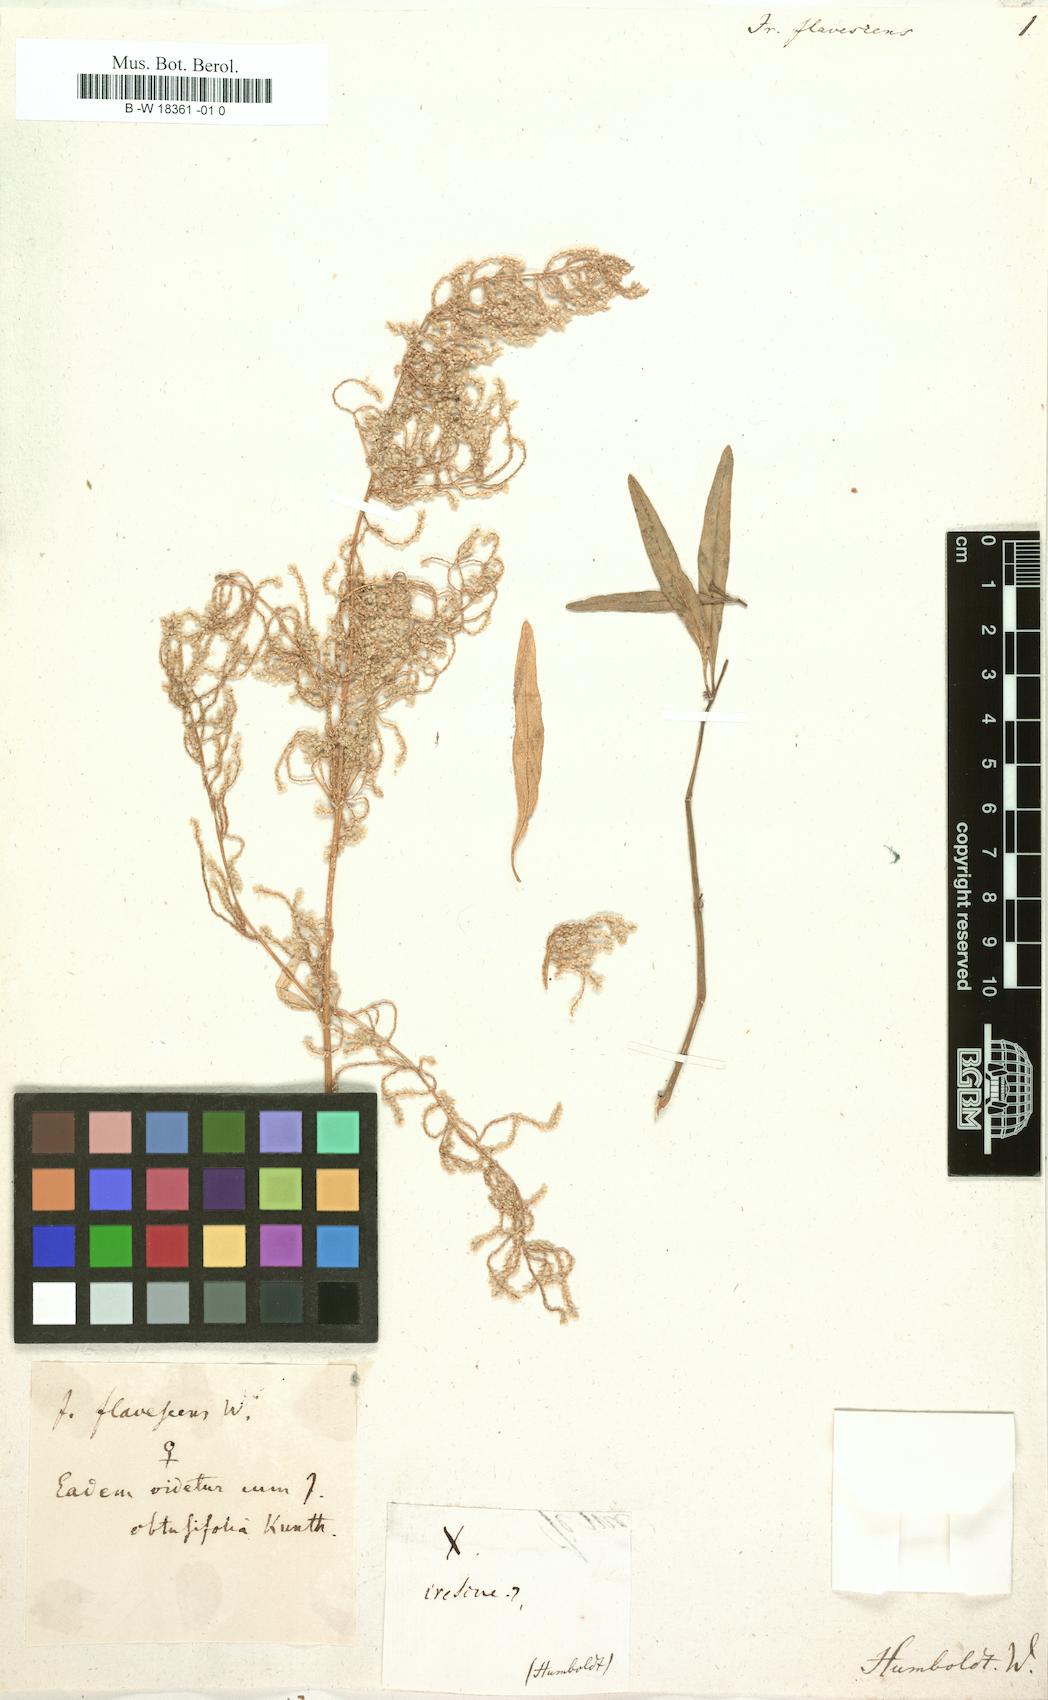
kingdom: Plantae
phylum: Tracheophyta
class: Magnoliopsida
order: Caryophyllales
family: Amaranthaceae
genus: Iresine
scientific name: Iresine flavescens
